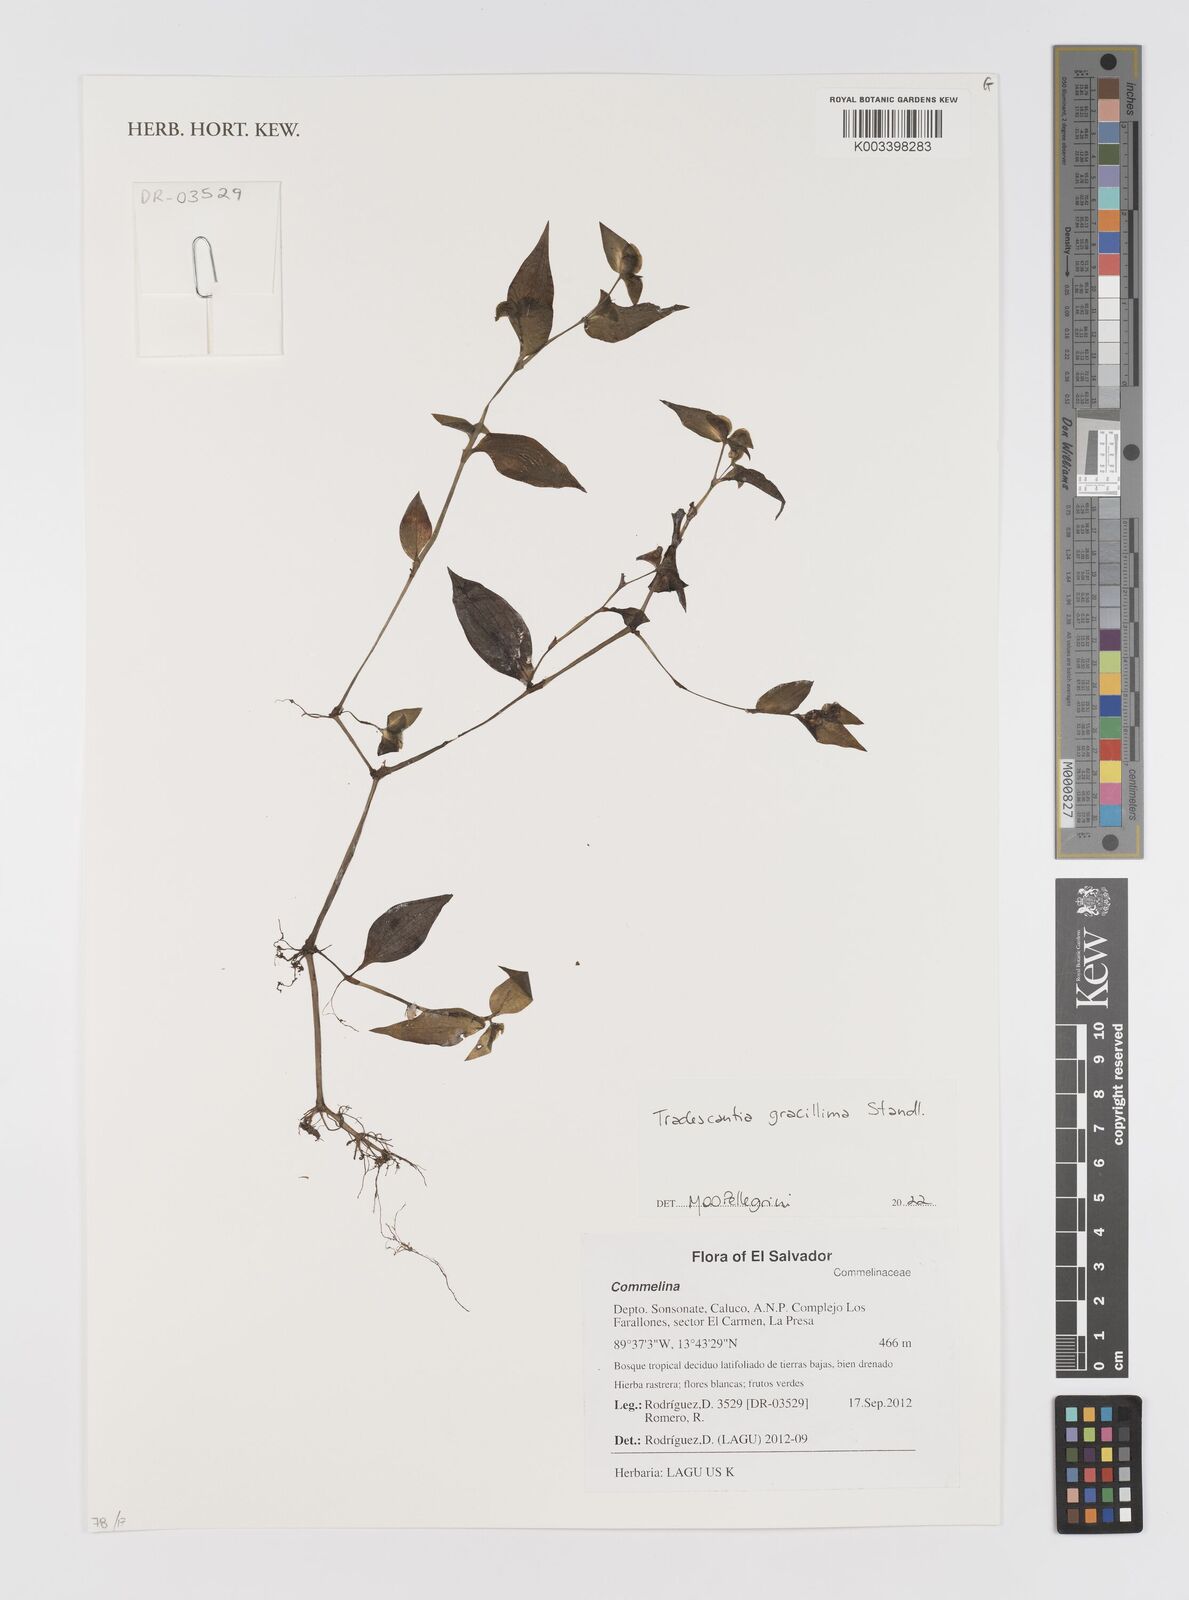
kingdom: Plantae
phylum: Tracheophyta
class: Liliopsida
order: Commelinales
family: Commelinaceae
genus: Tradescantia
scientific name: Tradescantia gracillima
